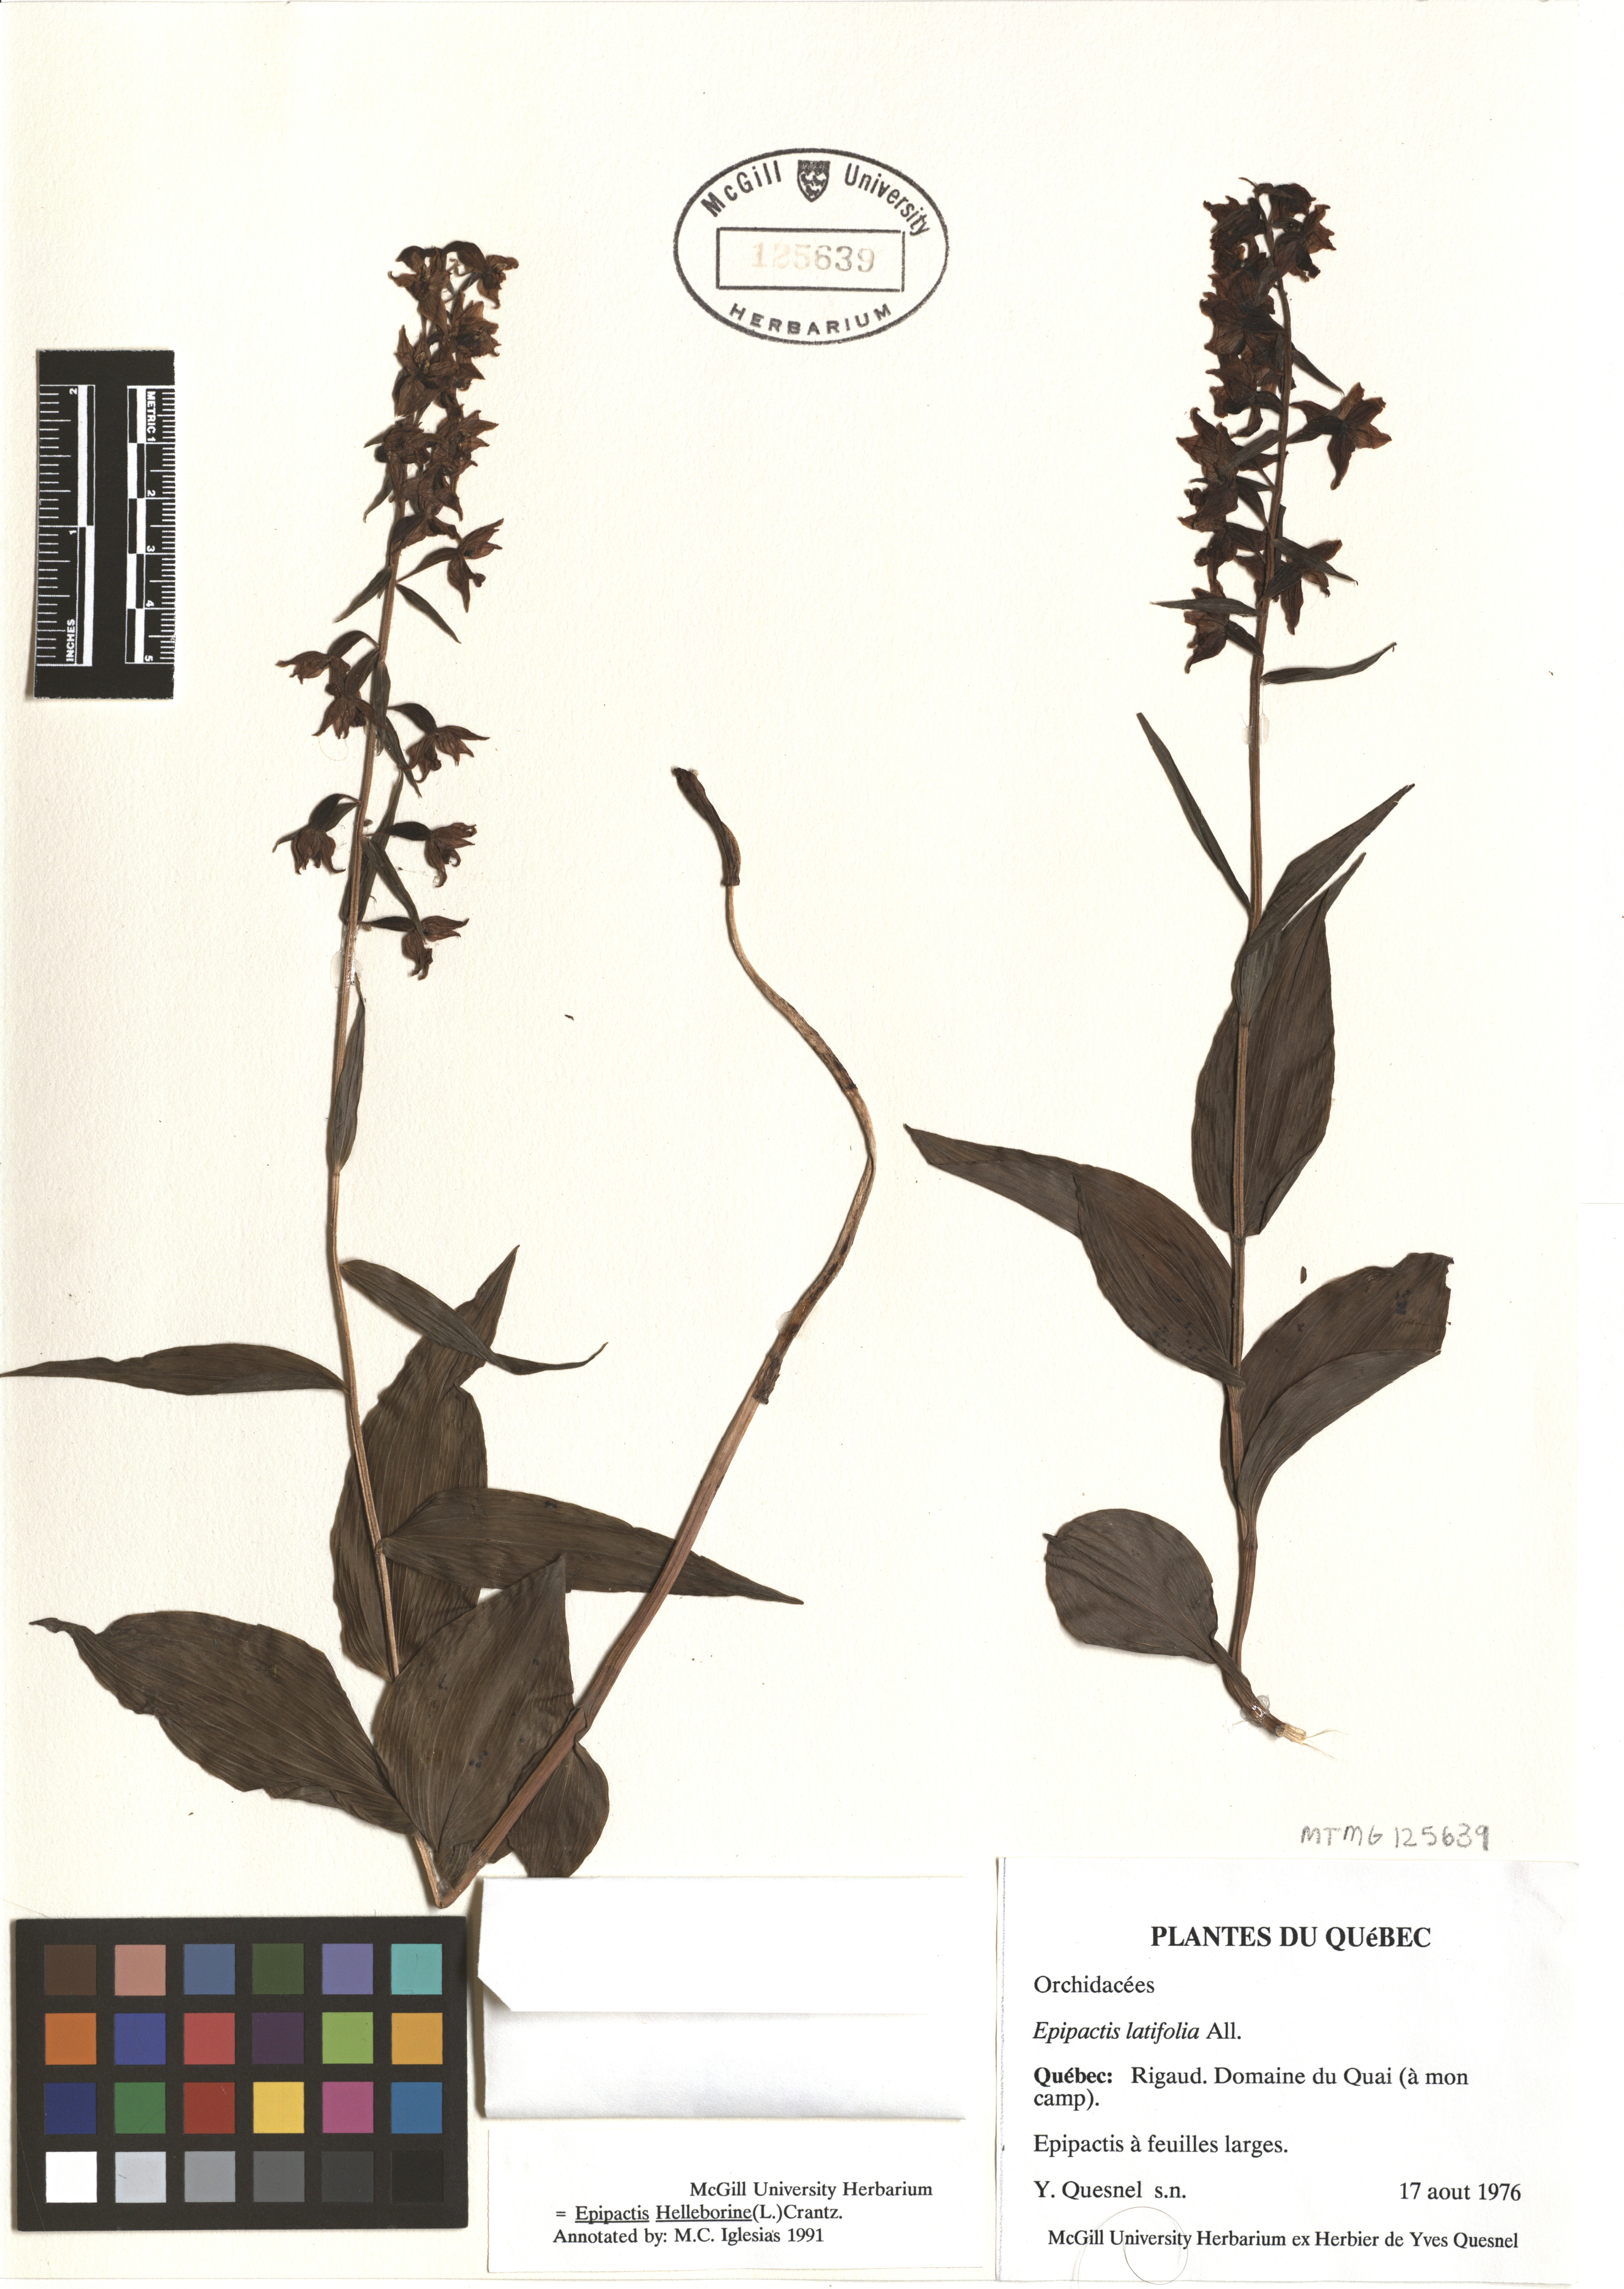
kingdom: Plantae
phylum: Tracheophyta
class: Liliopsida
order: Asparagales
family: Orchidaceae
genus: Epipactis
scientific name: Epipactis helleborine
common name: Broad-leaved helleborine
